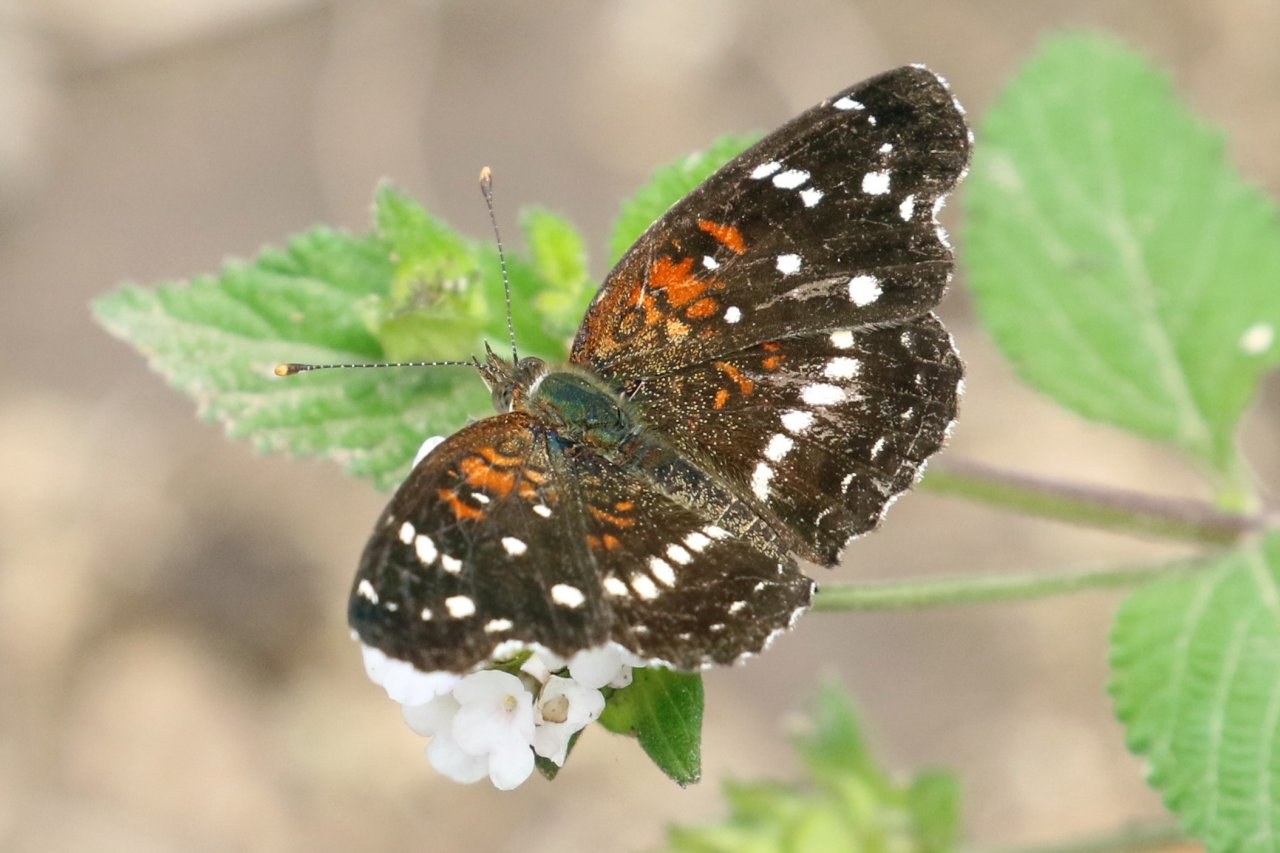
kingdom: Animalia
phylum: Arthropoda
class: Insecta
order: Lepidoptera
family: Nymphalidae
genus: Anthanassa
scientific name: Anthanassa texana
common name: Texan Crescent
